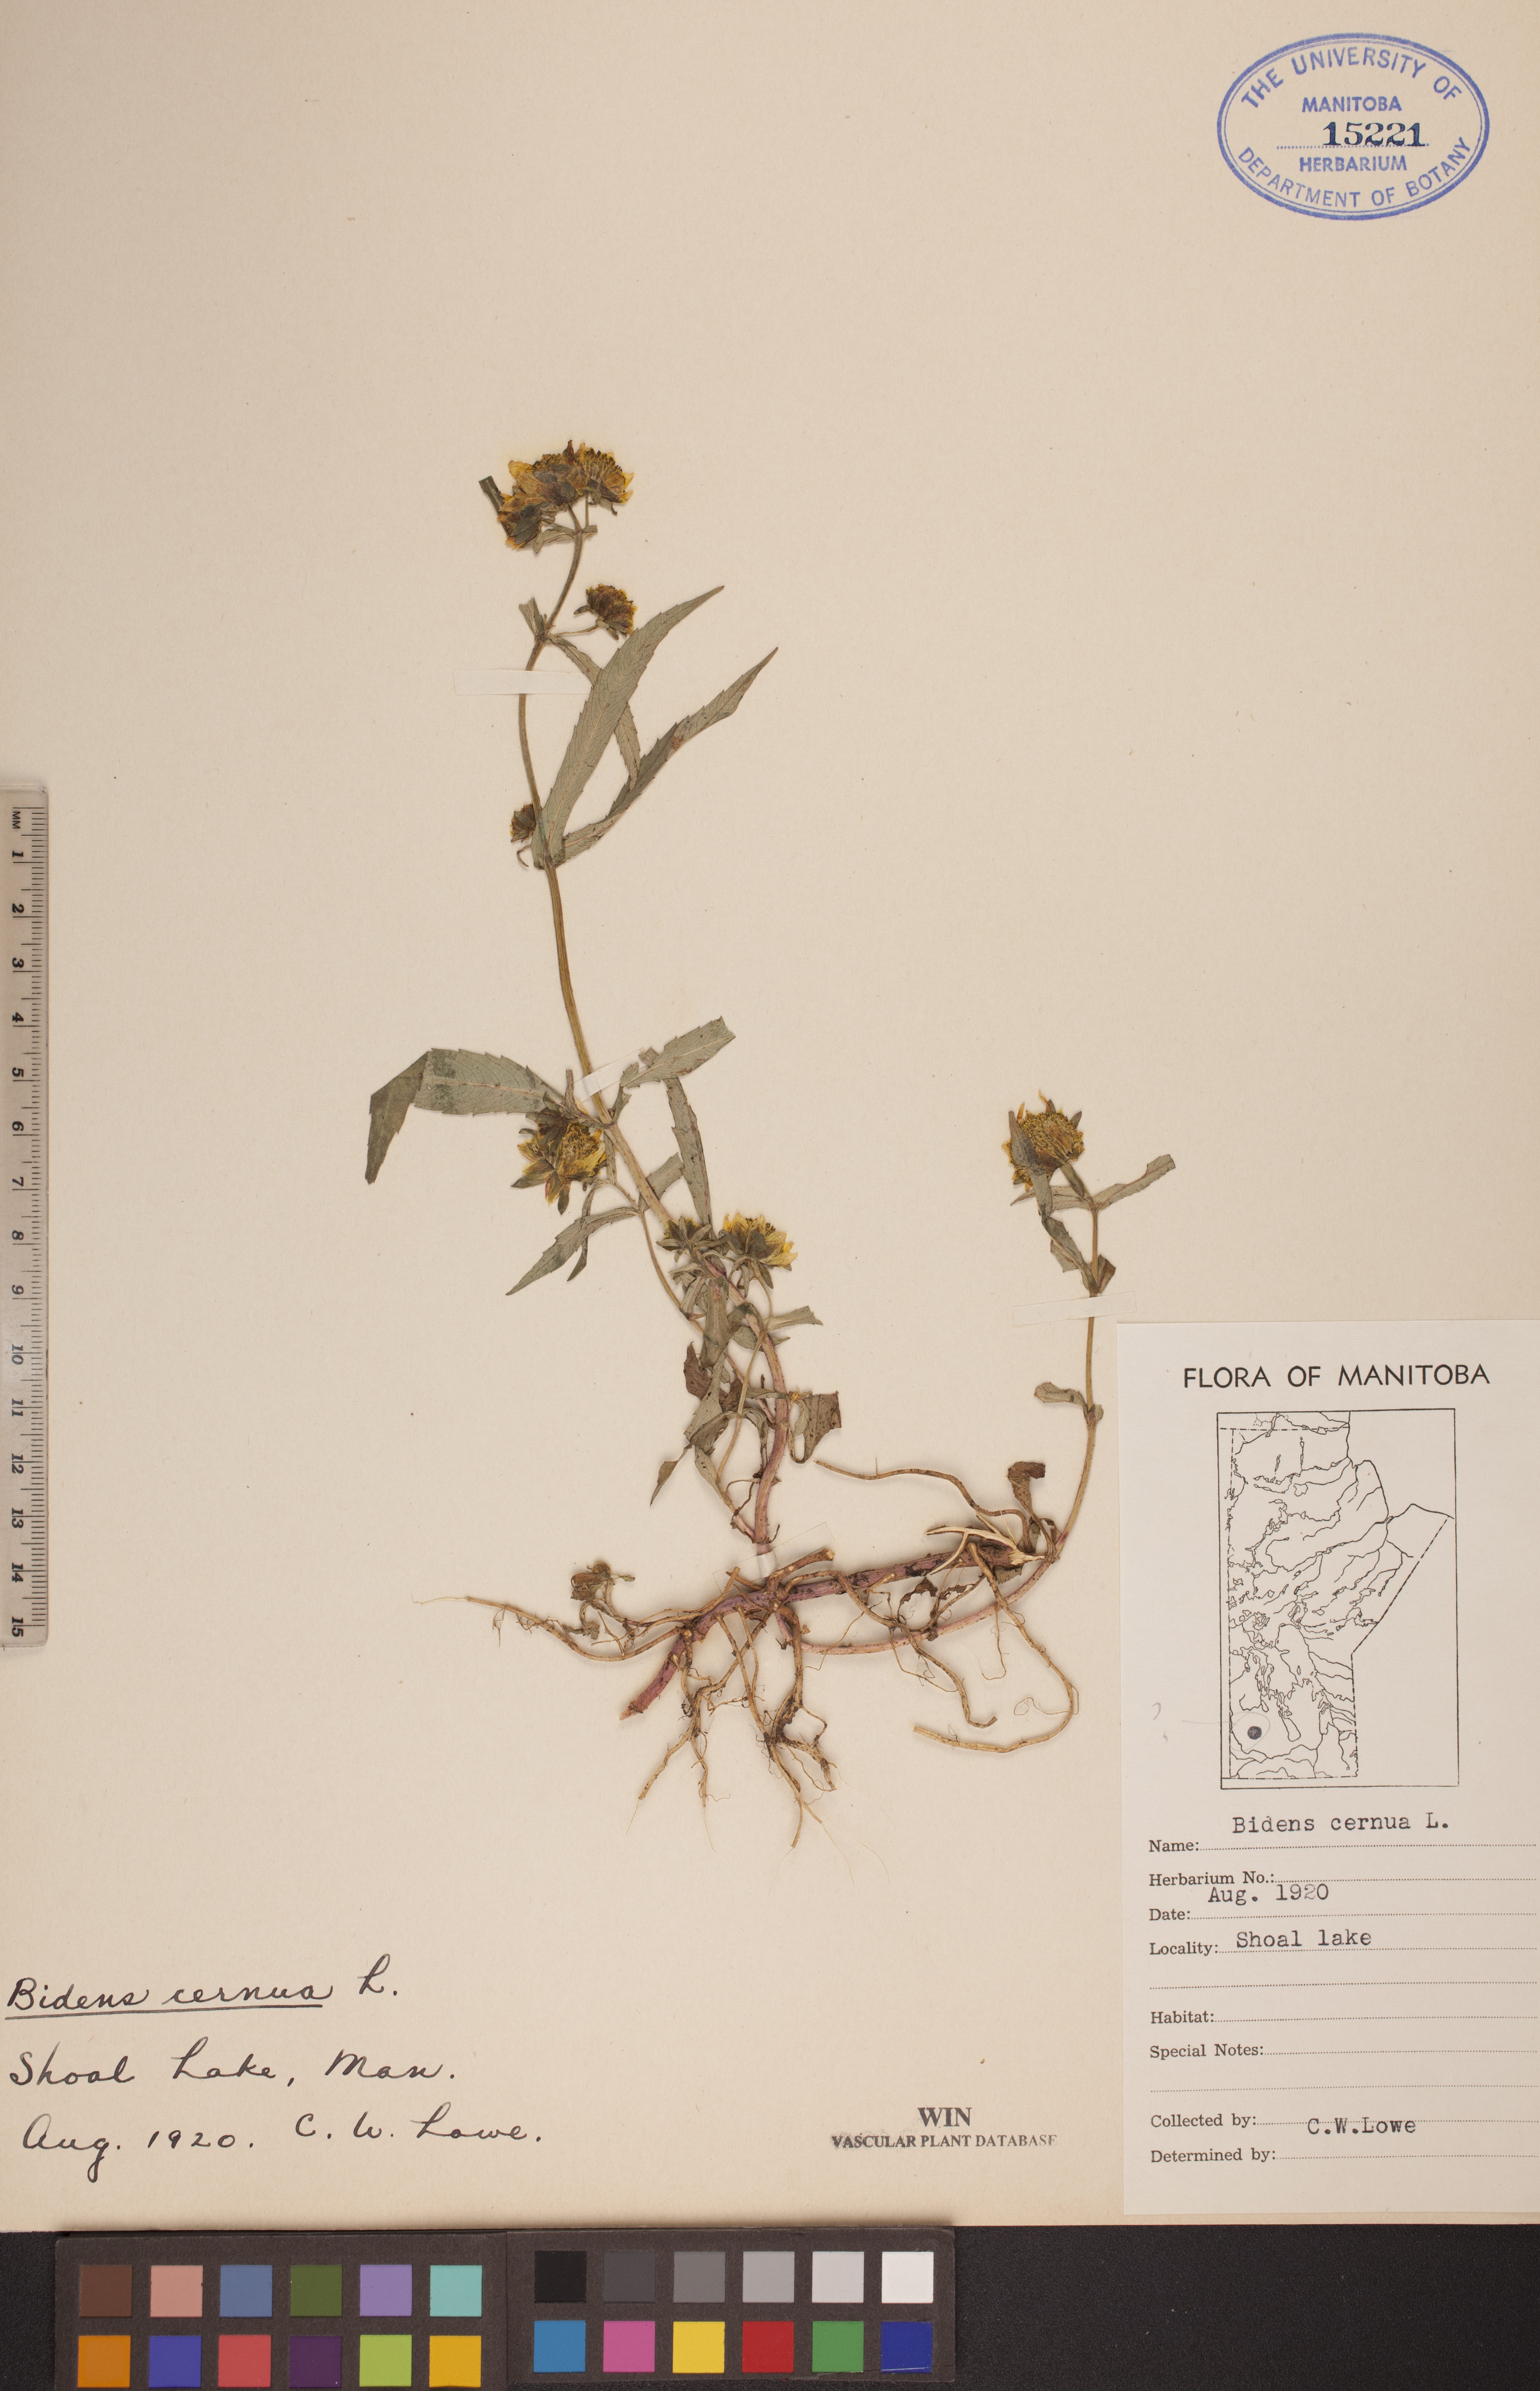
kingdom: Plantae
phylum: Tracheophyta
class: Magnoliopsida
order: Asterales
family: Asteraceae
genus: Bidens
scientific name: Bidens cernua
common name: Nodding bur-marigold
